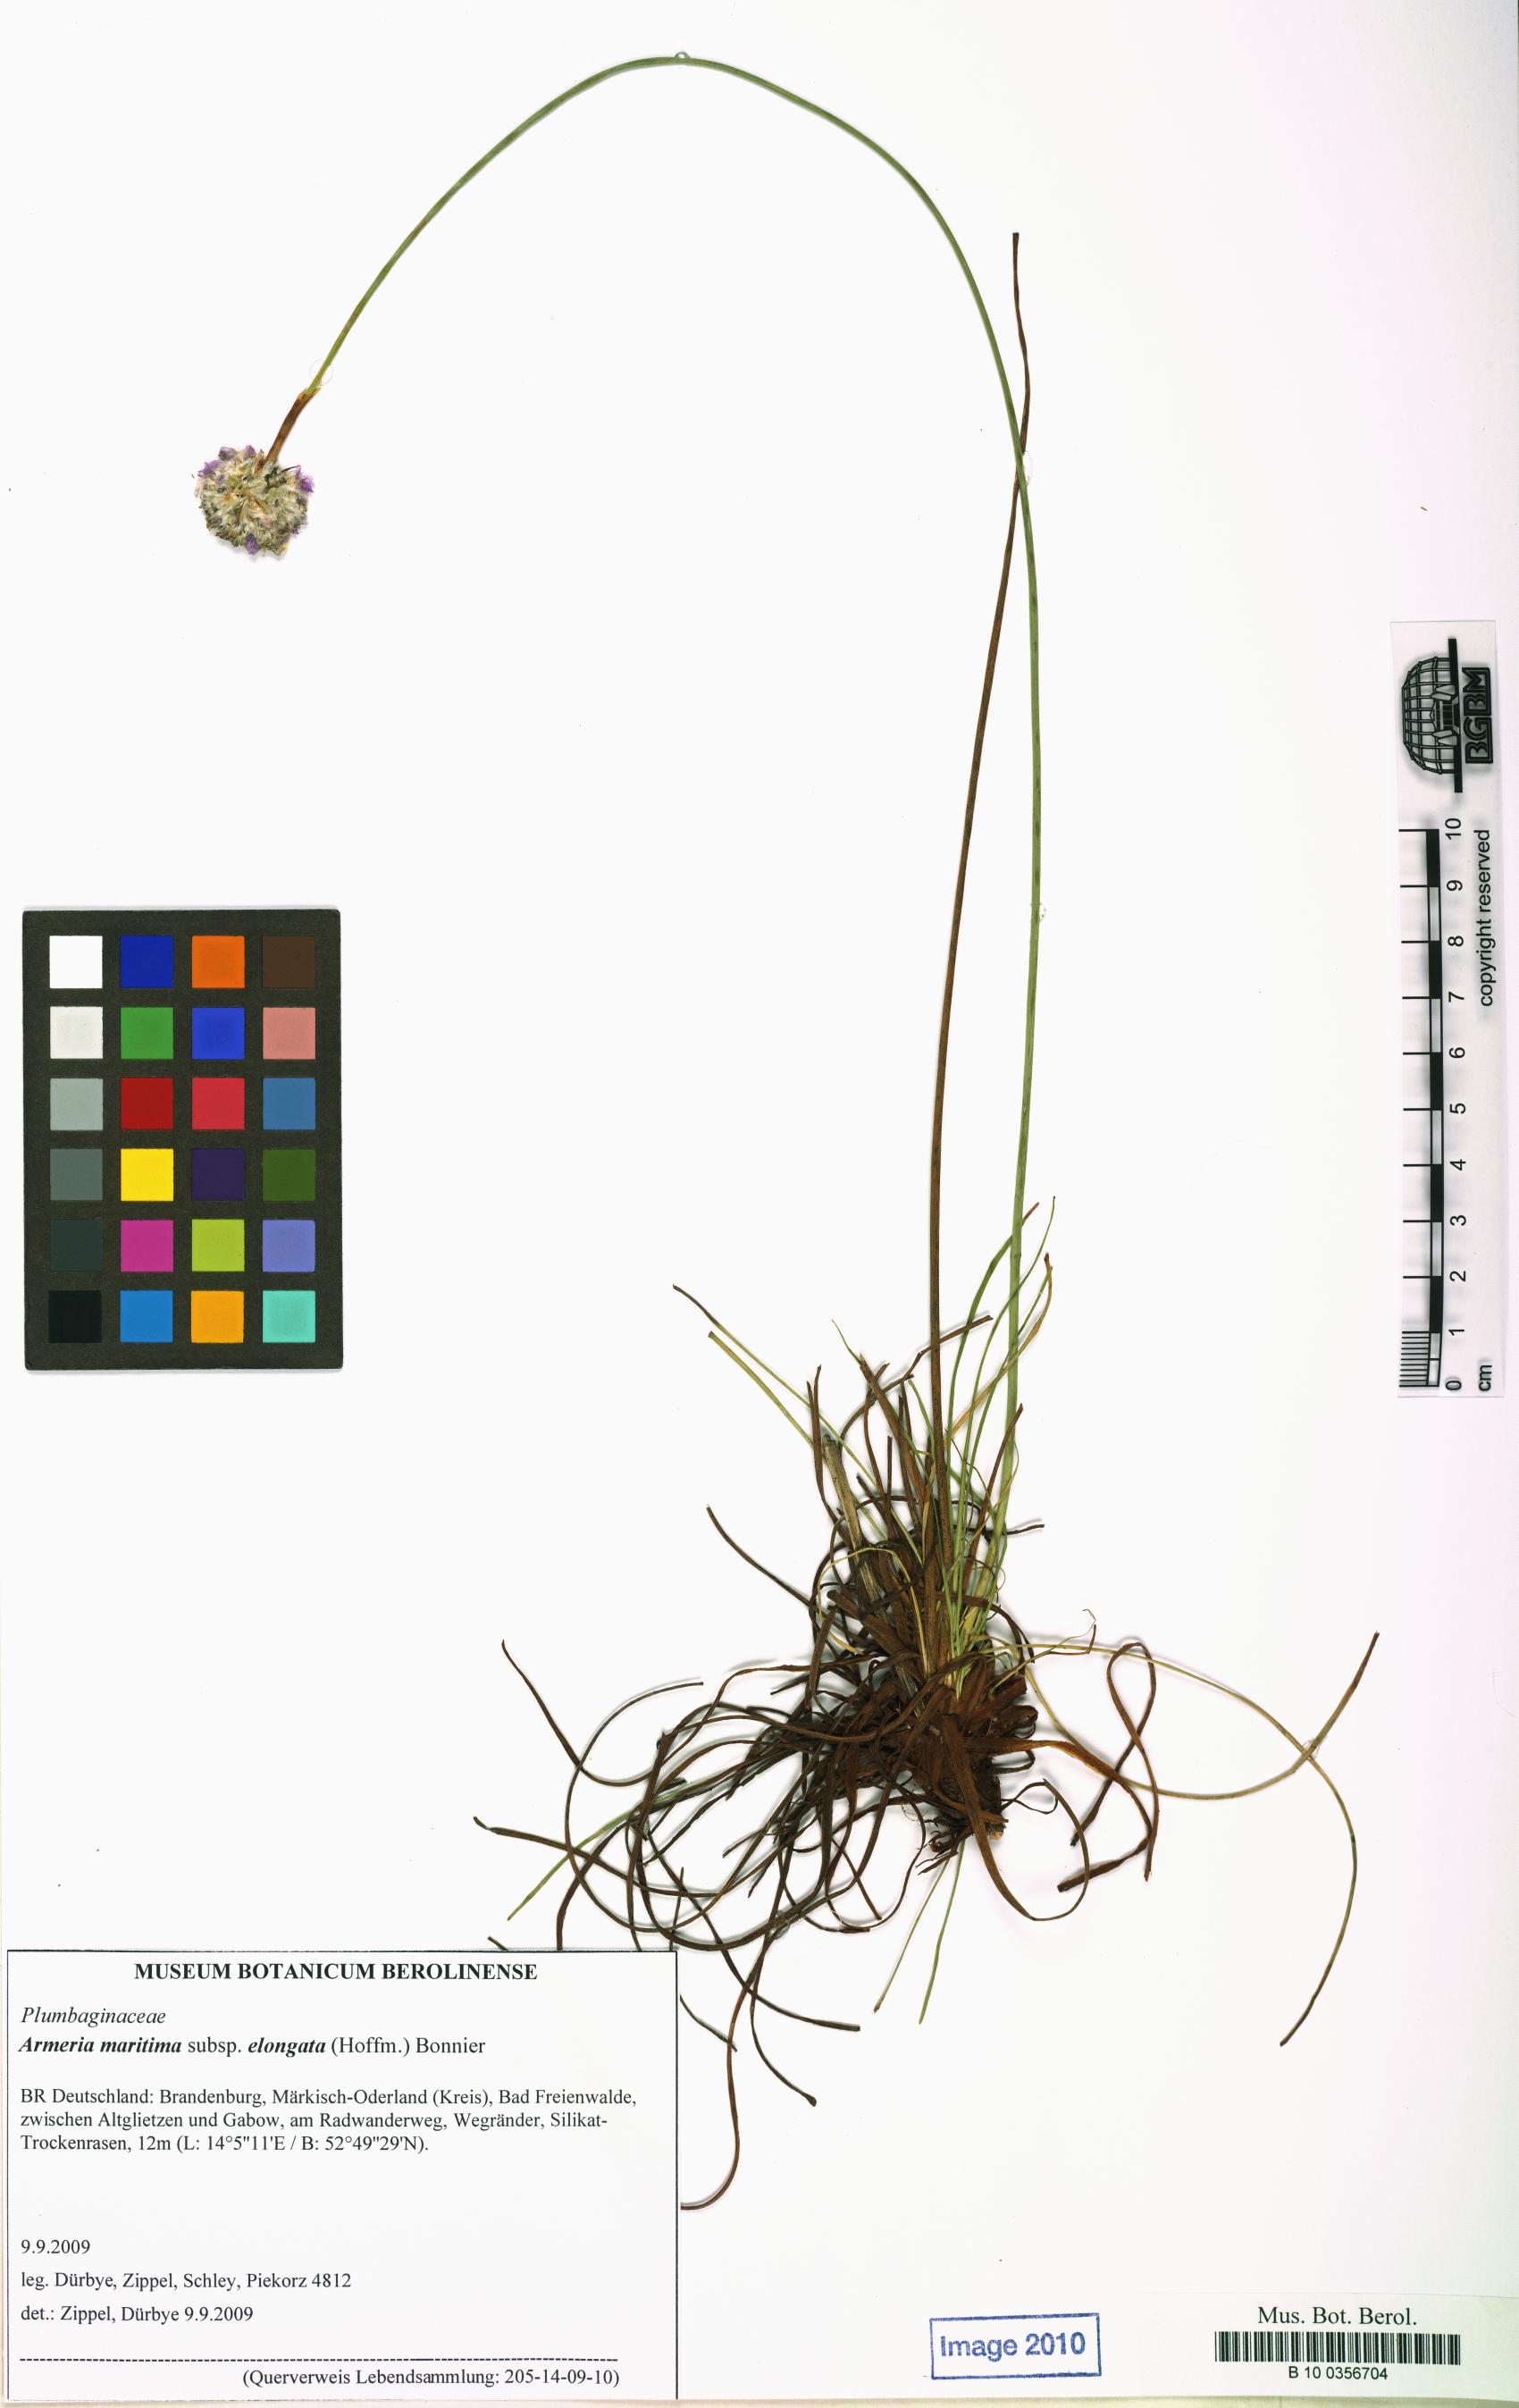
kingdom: Plantae
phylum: Tracheophyta
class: Magnoliopsida
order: Caryophyllales
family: Plumbaginaceae
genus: Armeria
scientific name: Armeria maritima
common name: Thrift
